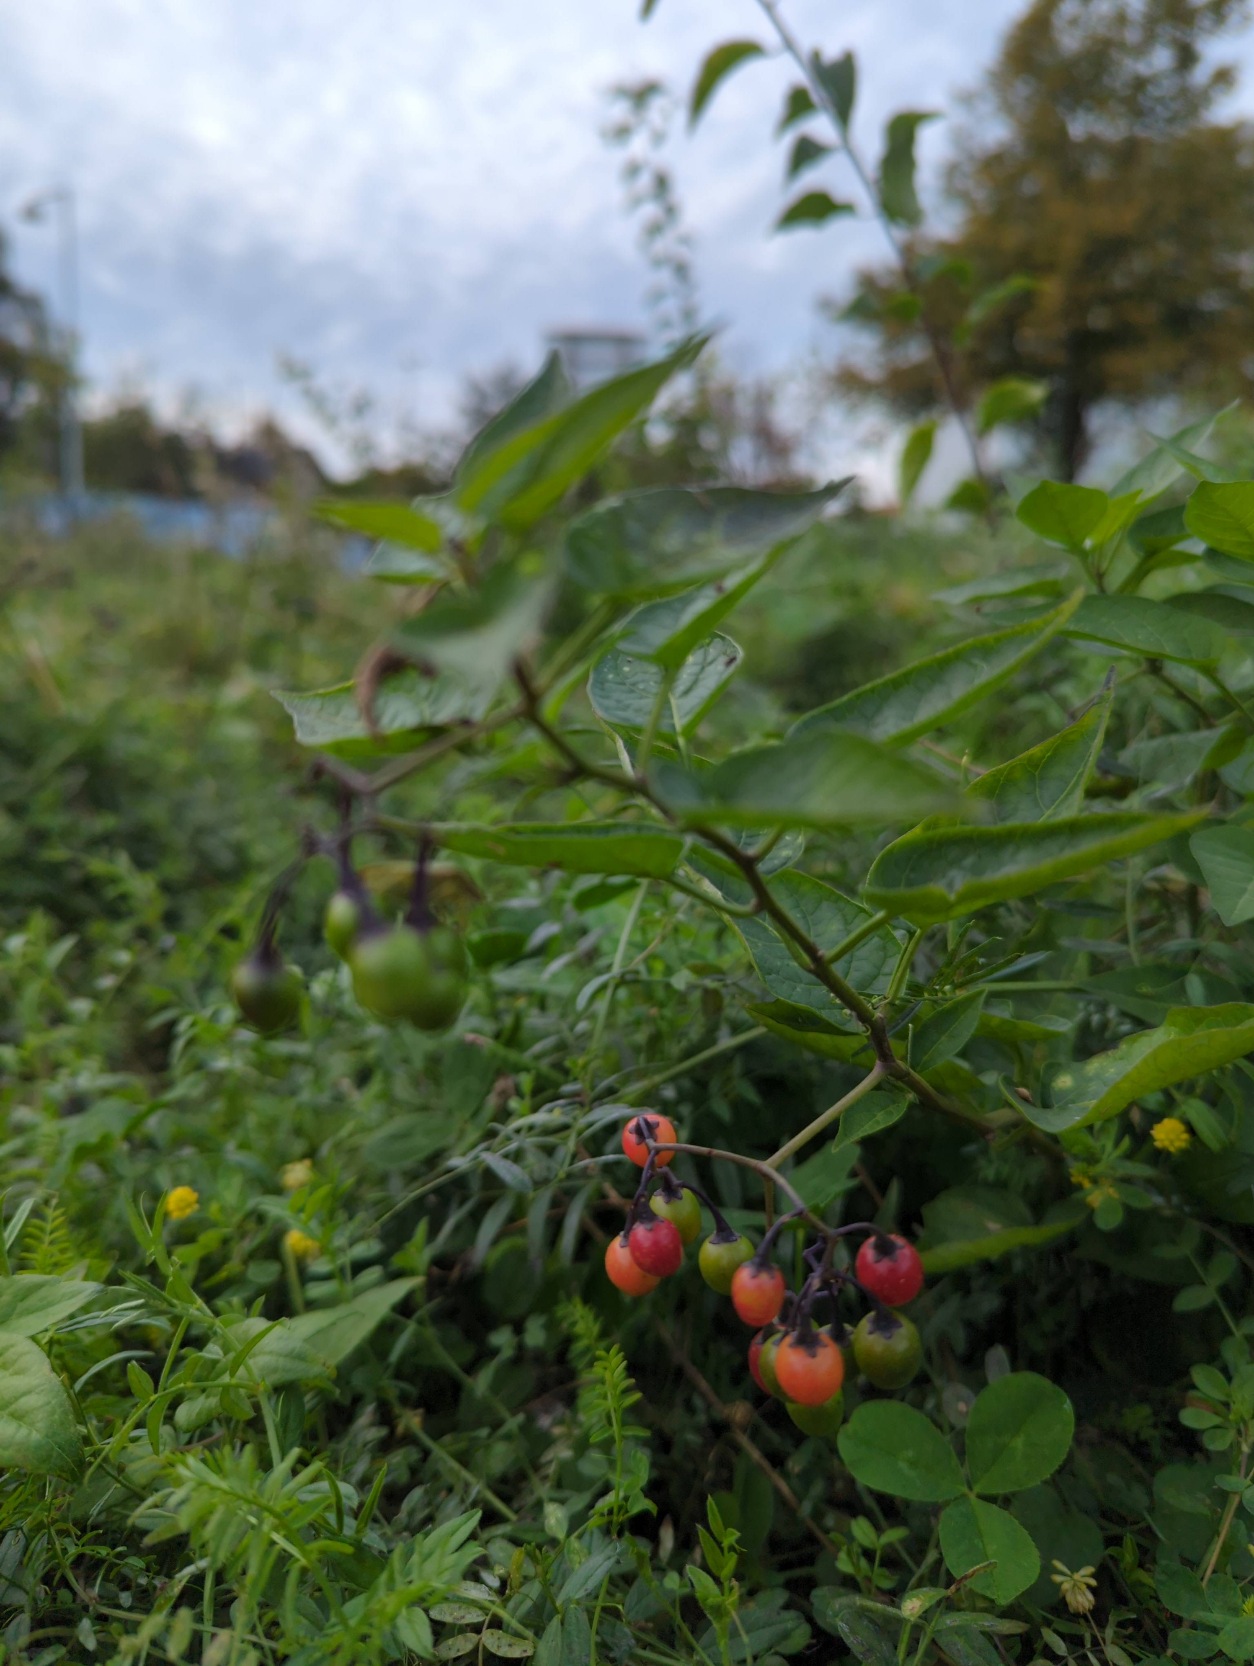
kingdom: Plantae
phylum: Tracheophyta
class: Magnoliopsida
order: Solanales
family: Solanaceae
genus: Solanum
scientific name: Solanum dulcamara
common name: Bittersød natskygge
